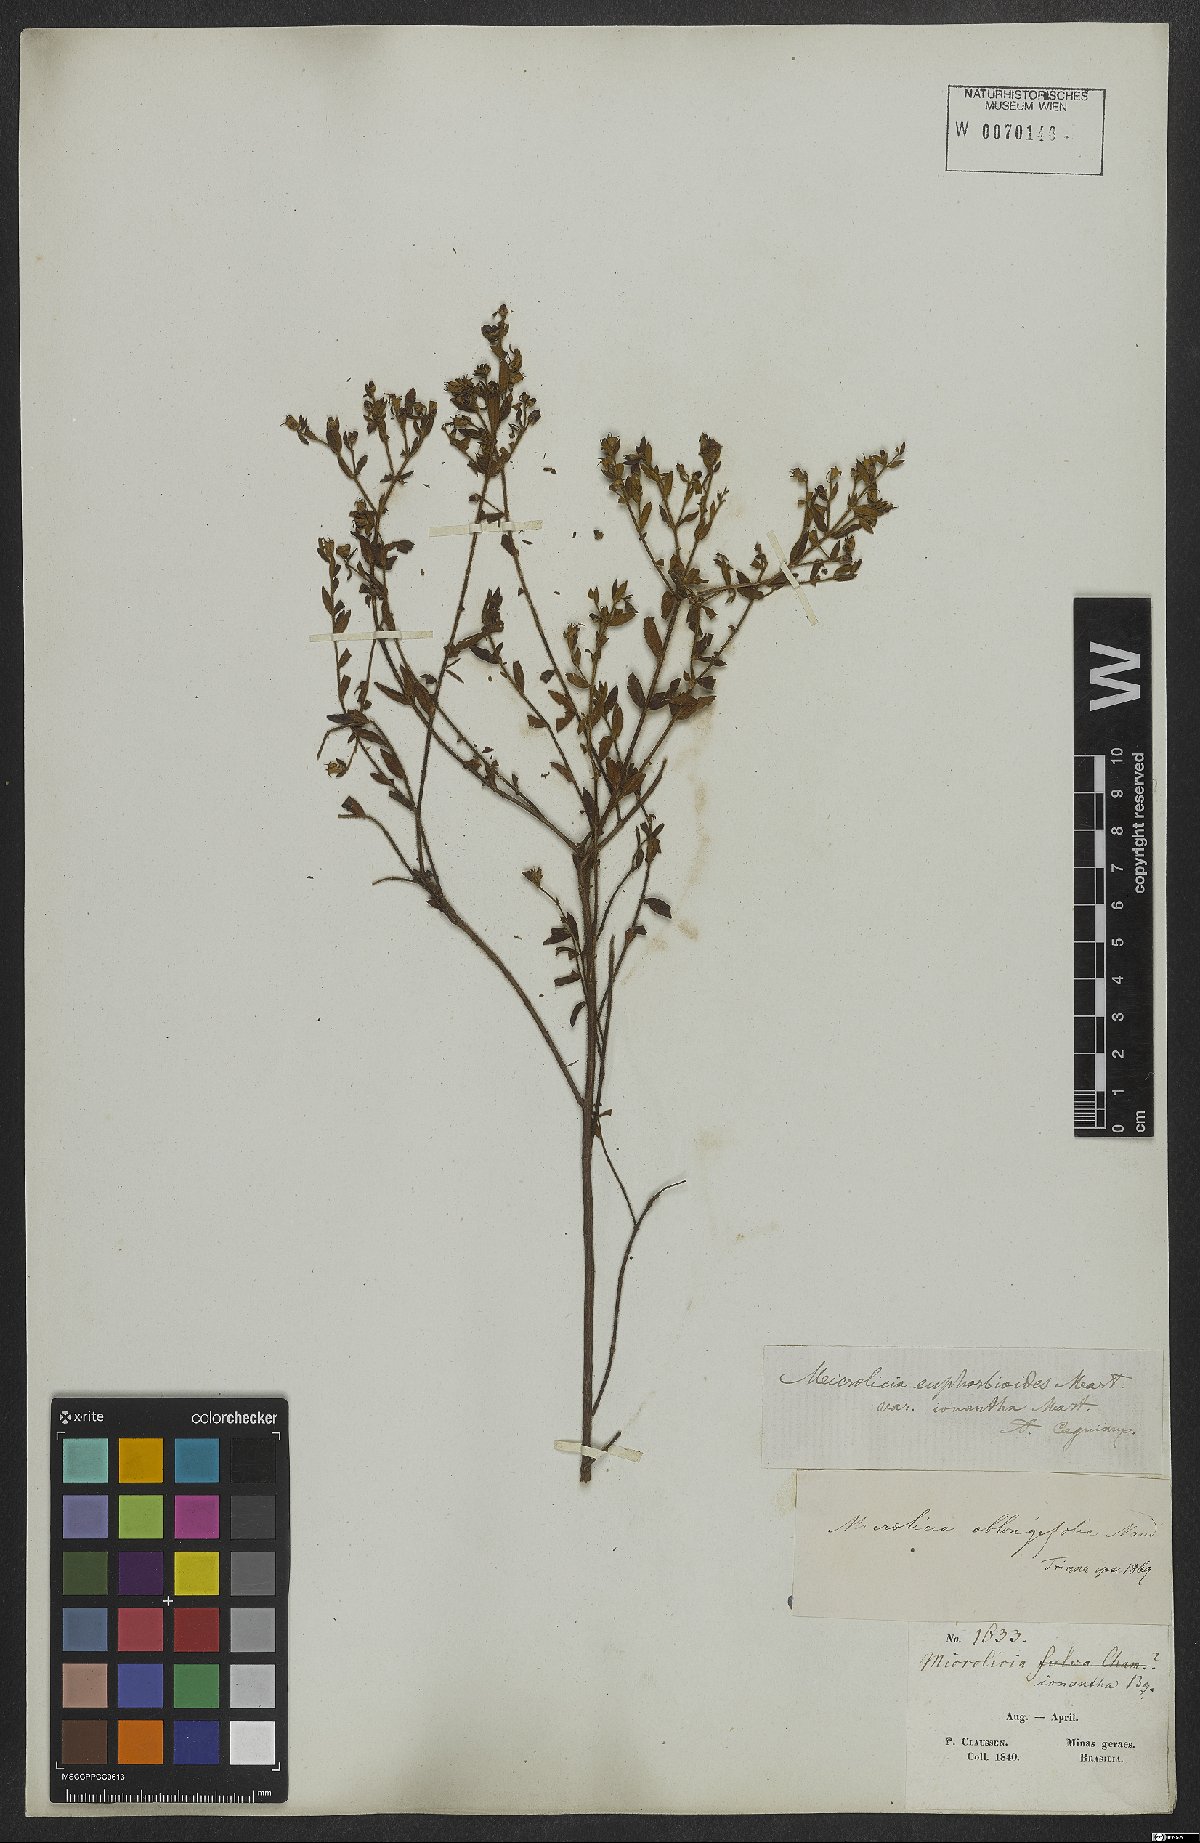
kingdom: Plantae
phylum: Tracheophyta
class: Magnoliopsida
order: Myrtales
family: Melastomataceae
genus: Microlicia
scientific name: Microlicia euphorbioides
